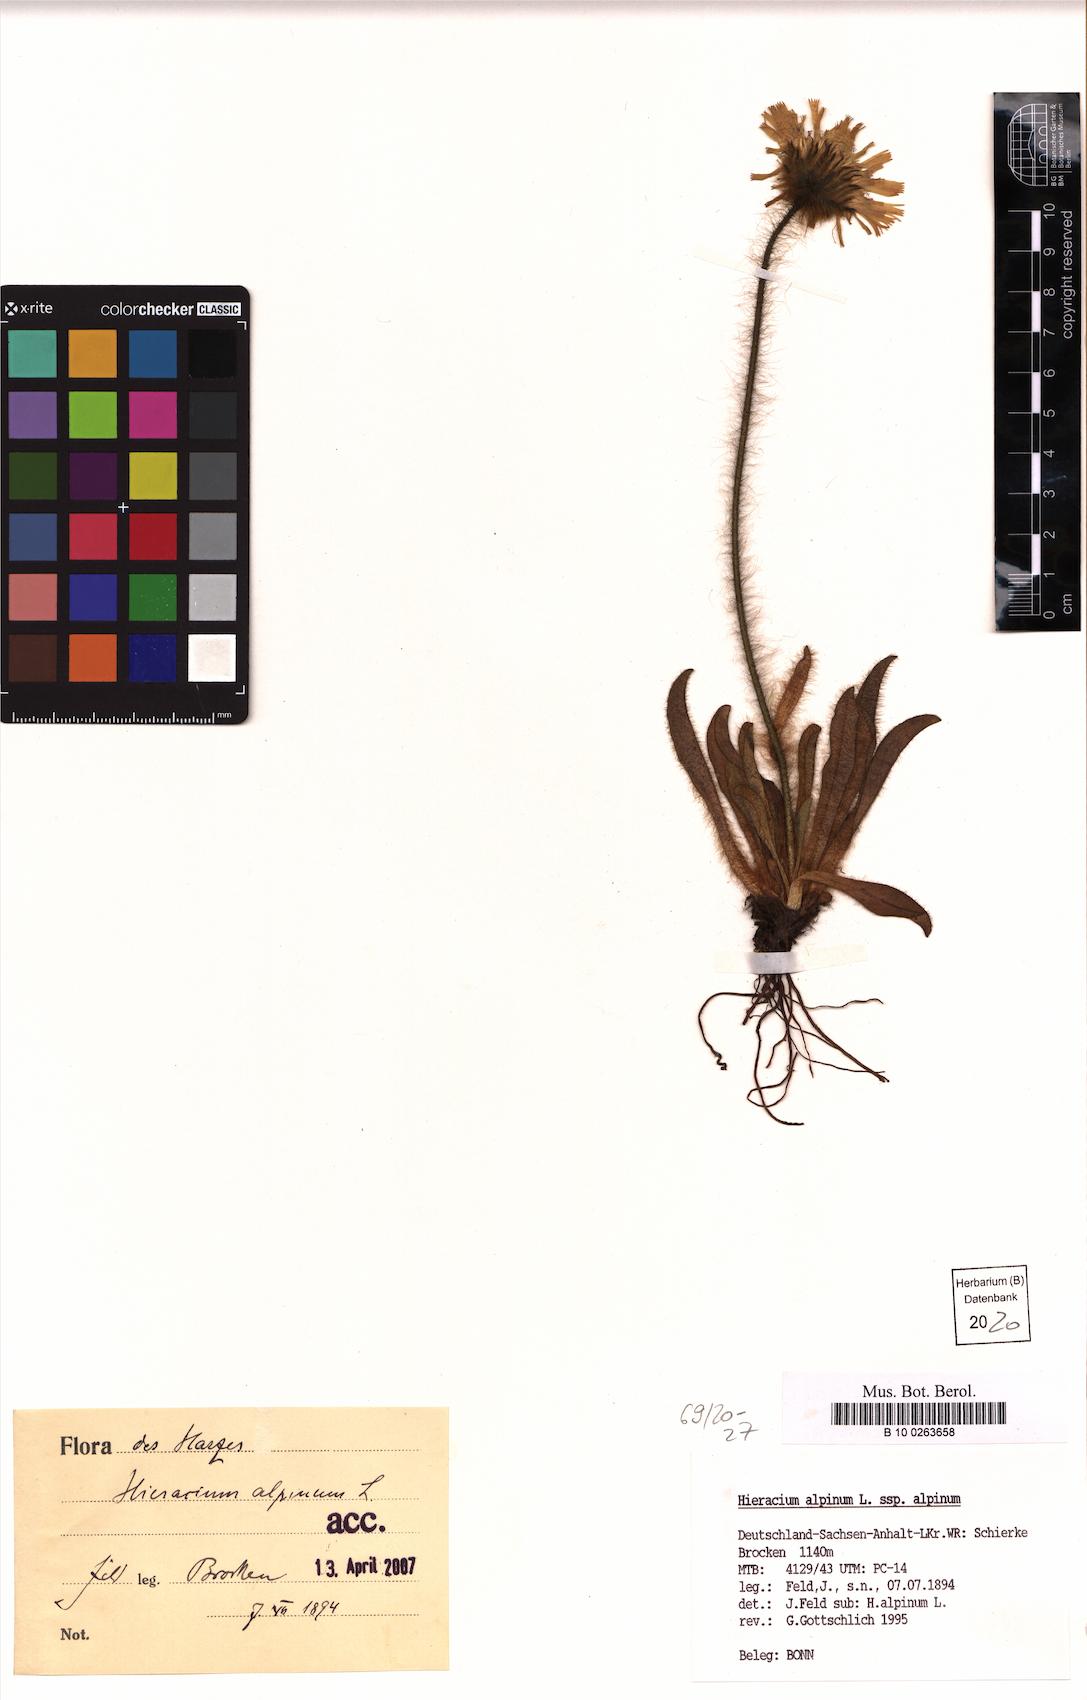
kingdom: Plantae
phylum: Tracheophyta
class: Magnoliopsida
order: Asterales
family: Asteraceae
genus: Hieracium
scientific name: Hieracium alpinum
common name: Alpine hawkweed
